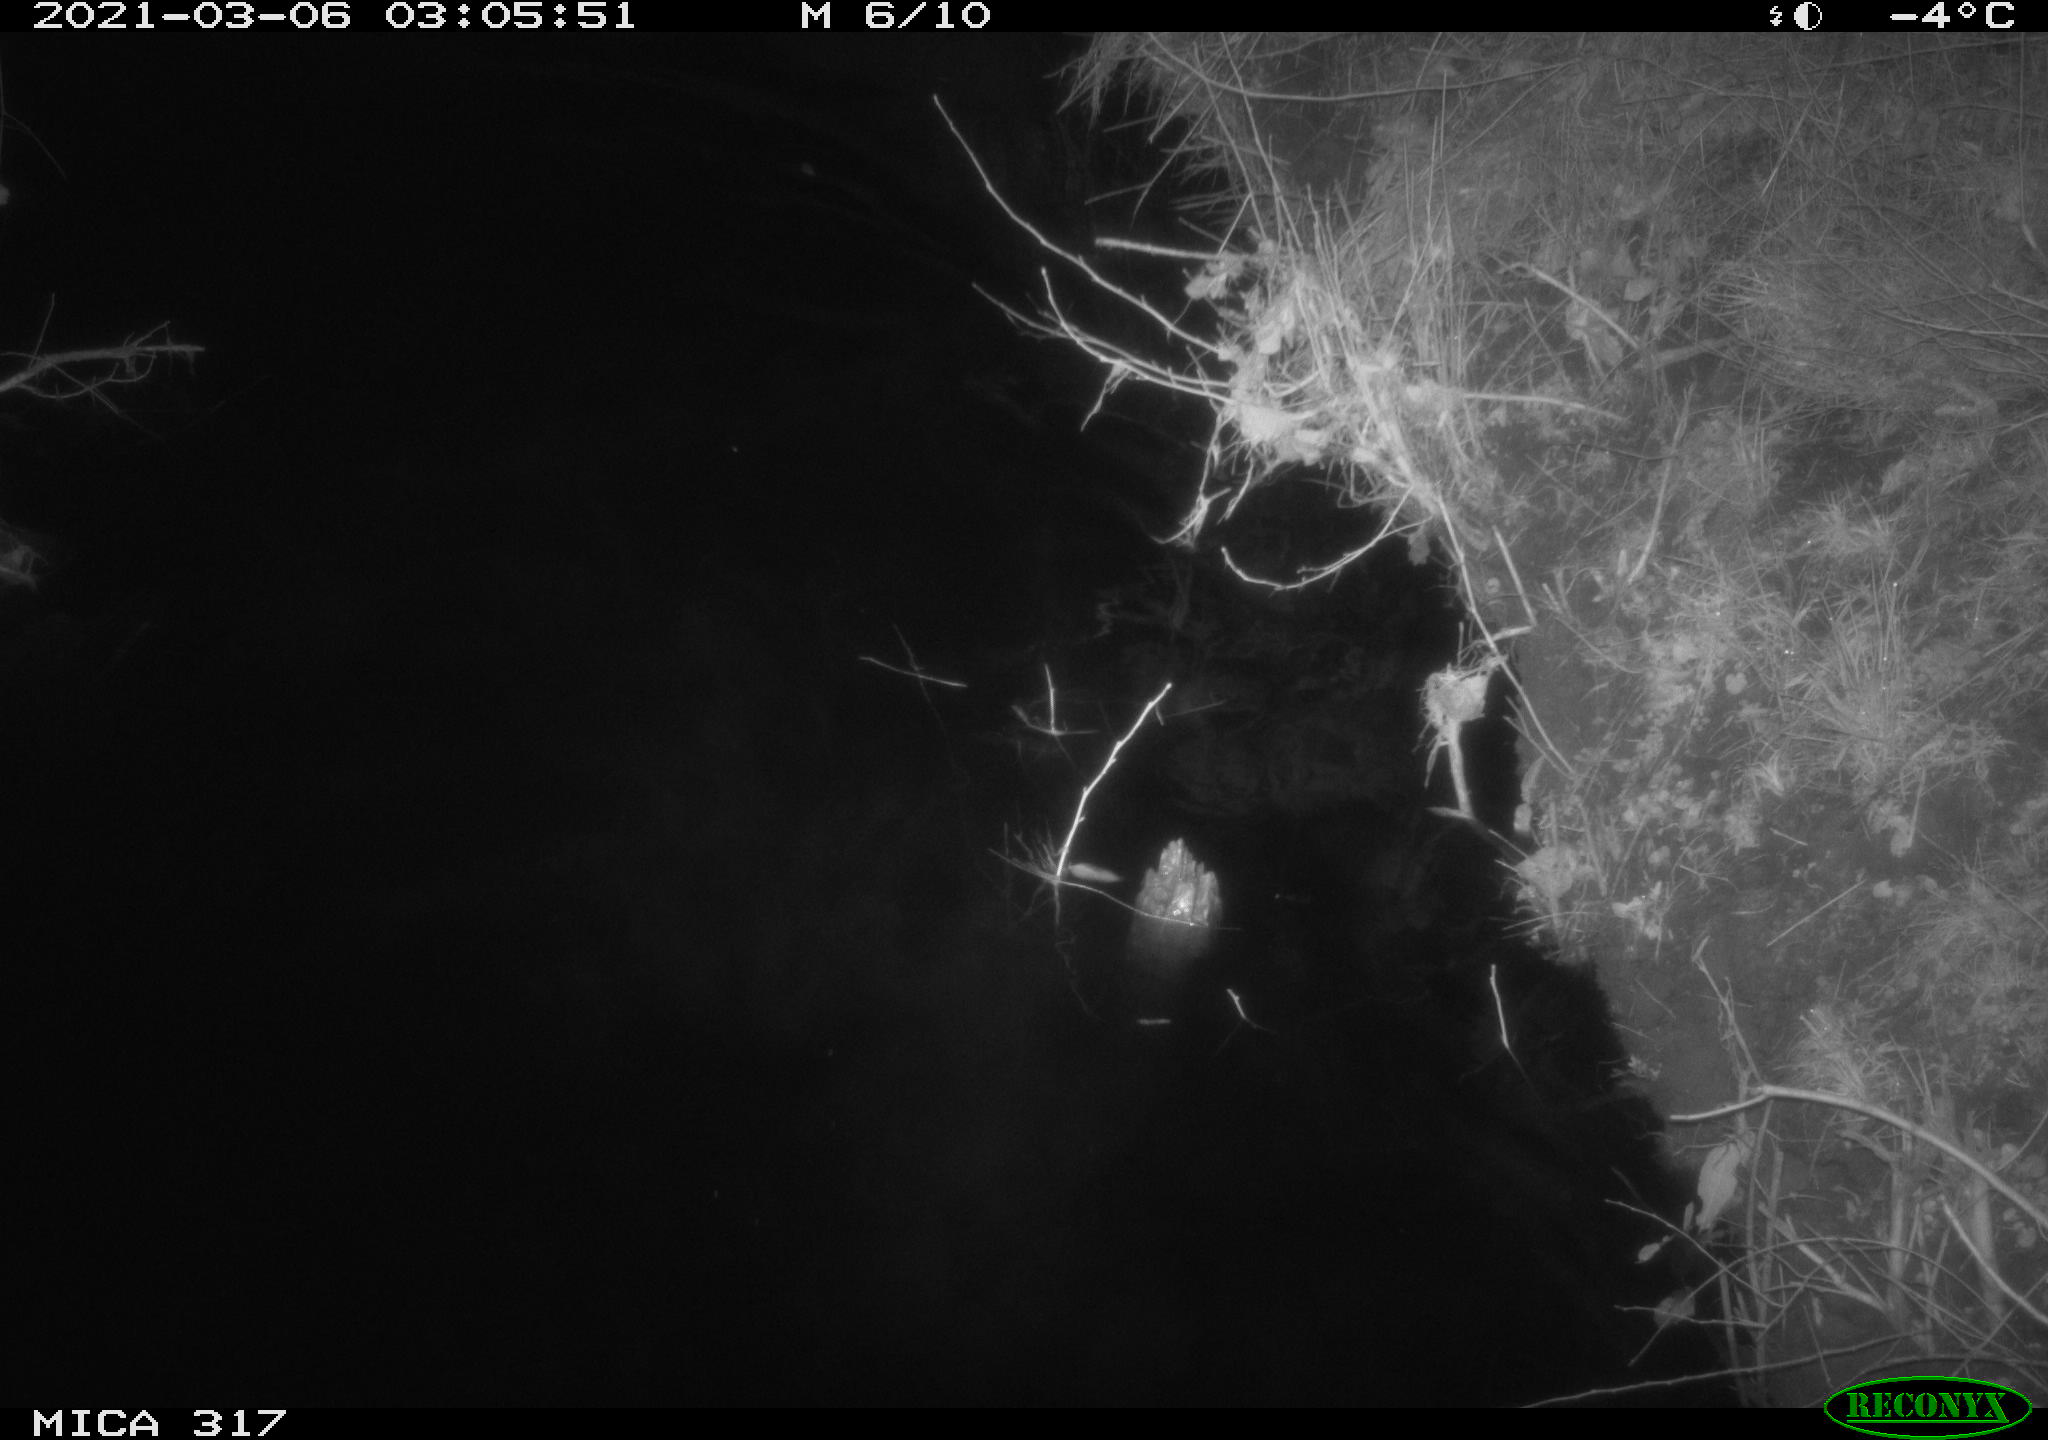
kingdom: Animalia
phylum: Chordata
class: Aves
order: Anseriformes
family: Anatidae
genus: Anas
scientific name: Anas platyrhynchos
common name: Mallard
